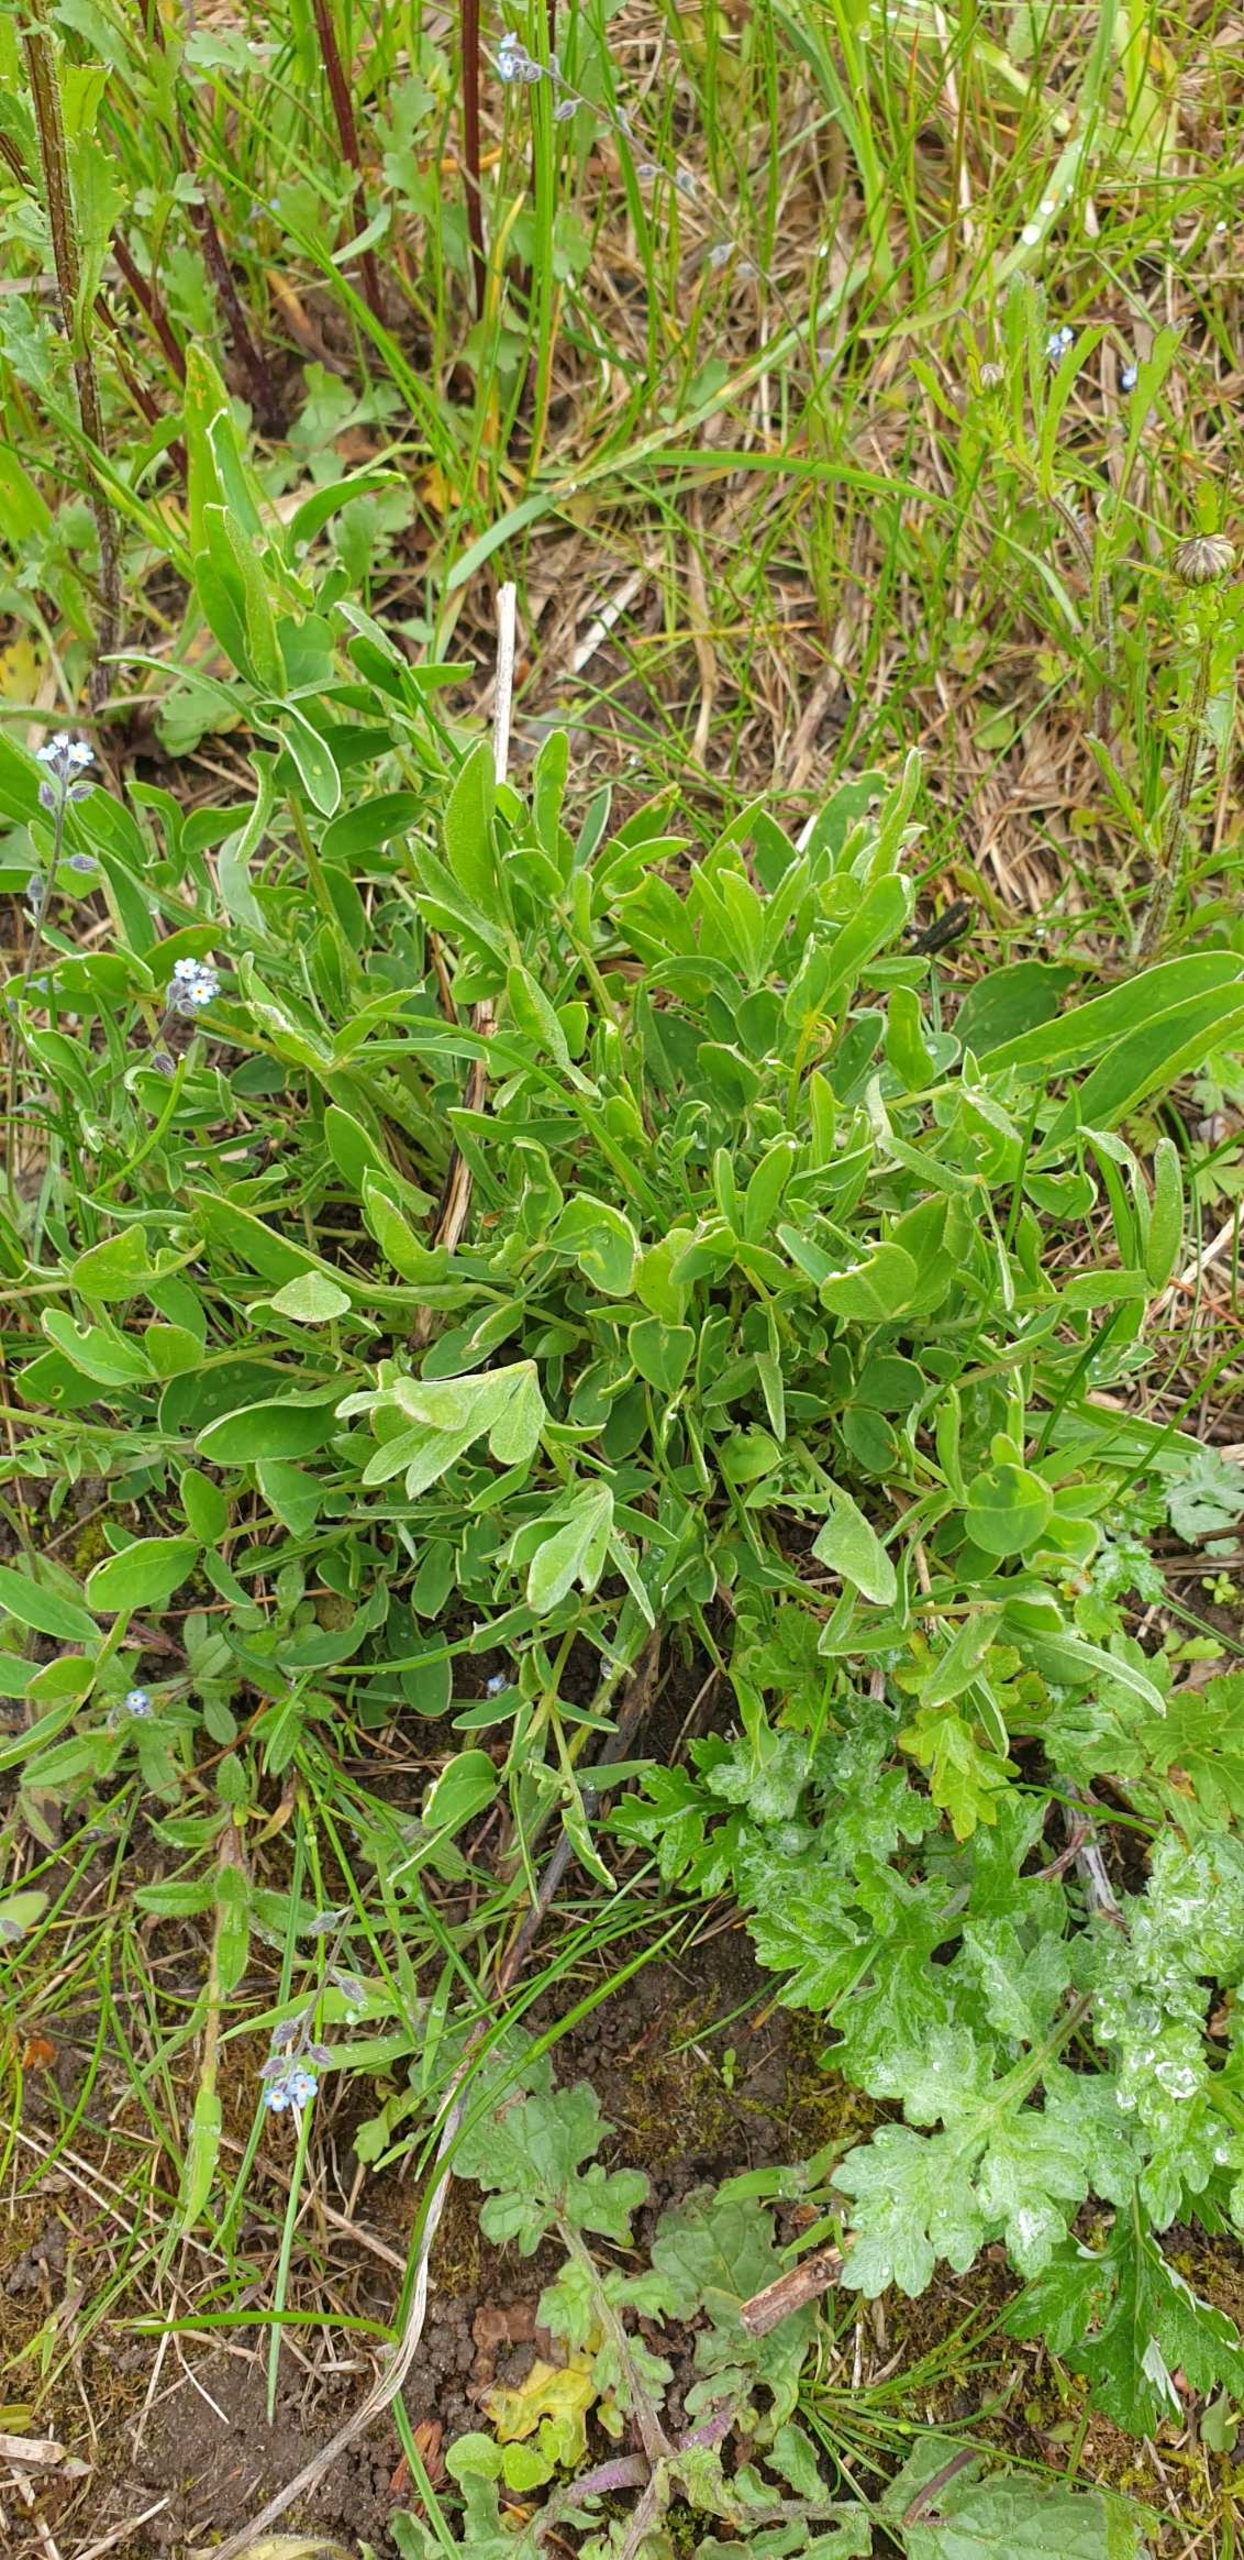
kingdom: Plantae
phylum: Tracheophyta
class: Magnoliopsida
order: Fabales
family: Fabaceae
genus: Anthyllis
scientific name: Anthyllis vulneraria
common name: Rundbælg
